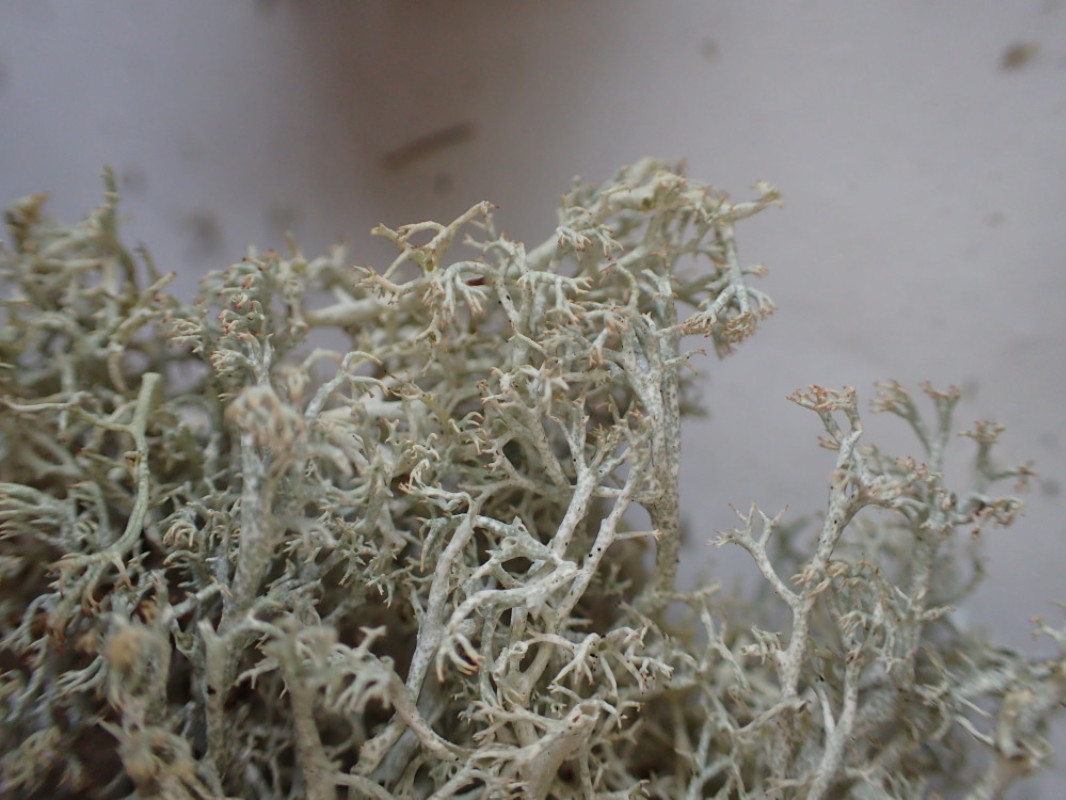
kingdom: Fungi
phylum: Ascomycota
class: Lecanoromycetes
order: Lecanorales
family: Cladoniaceae
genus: Cladonia
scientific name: Cladonia mitis
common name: mild rensdyrlav
